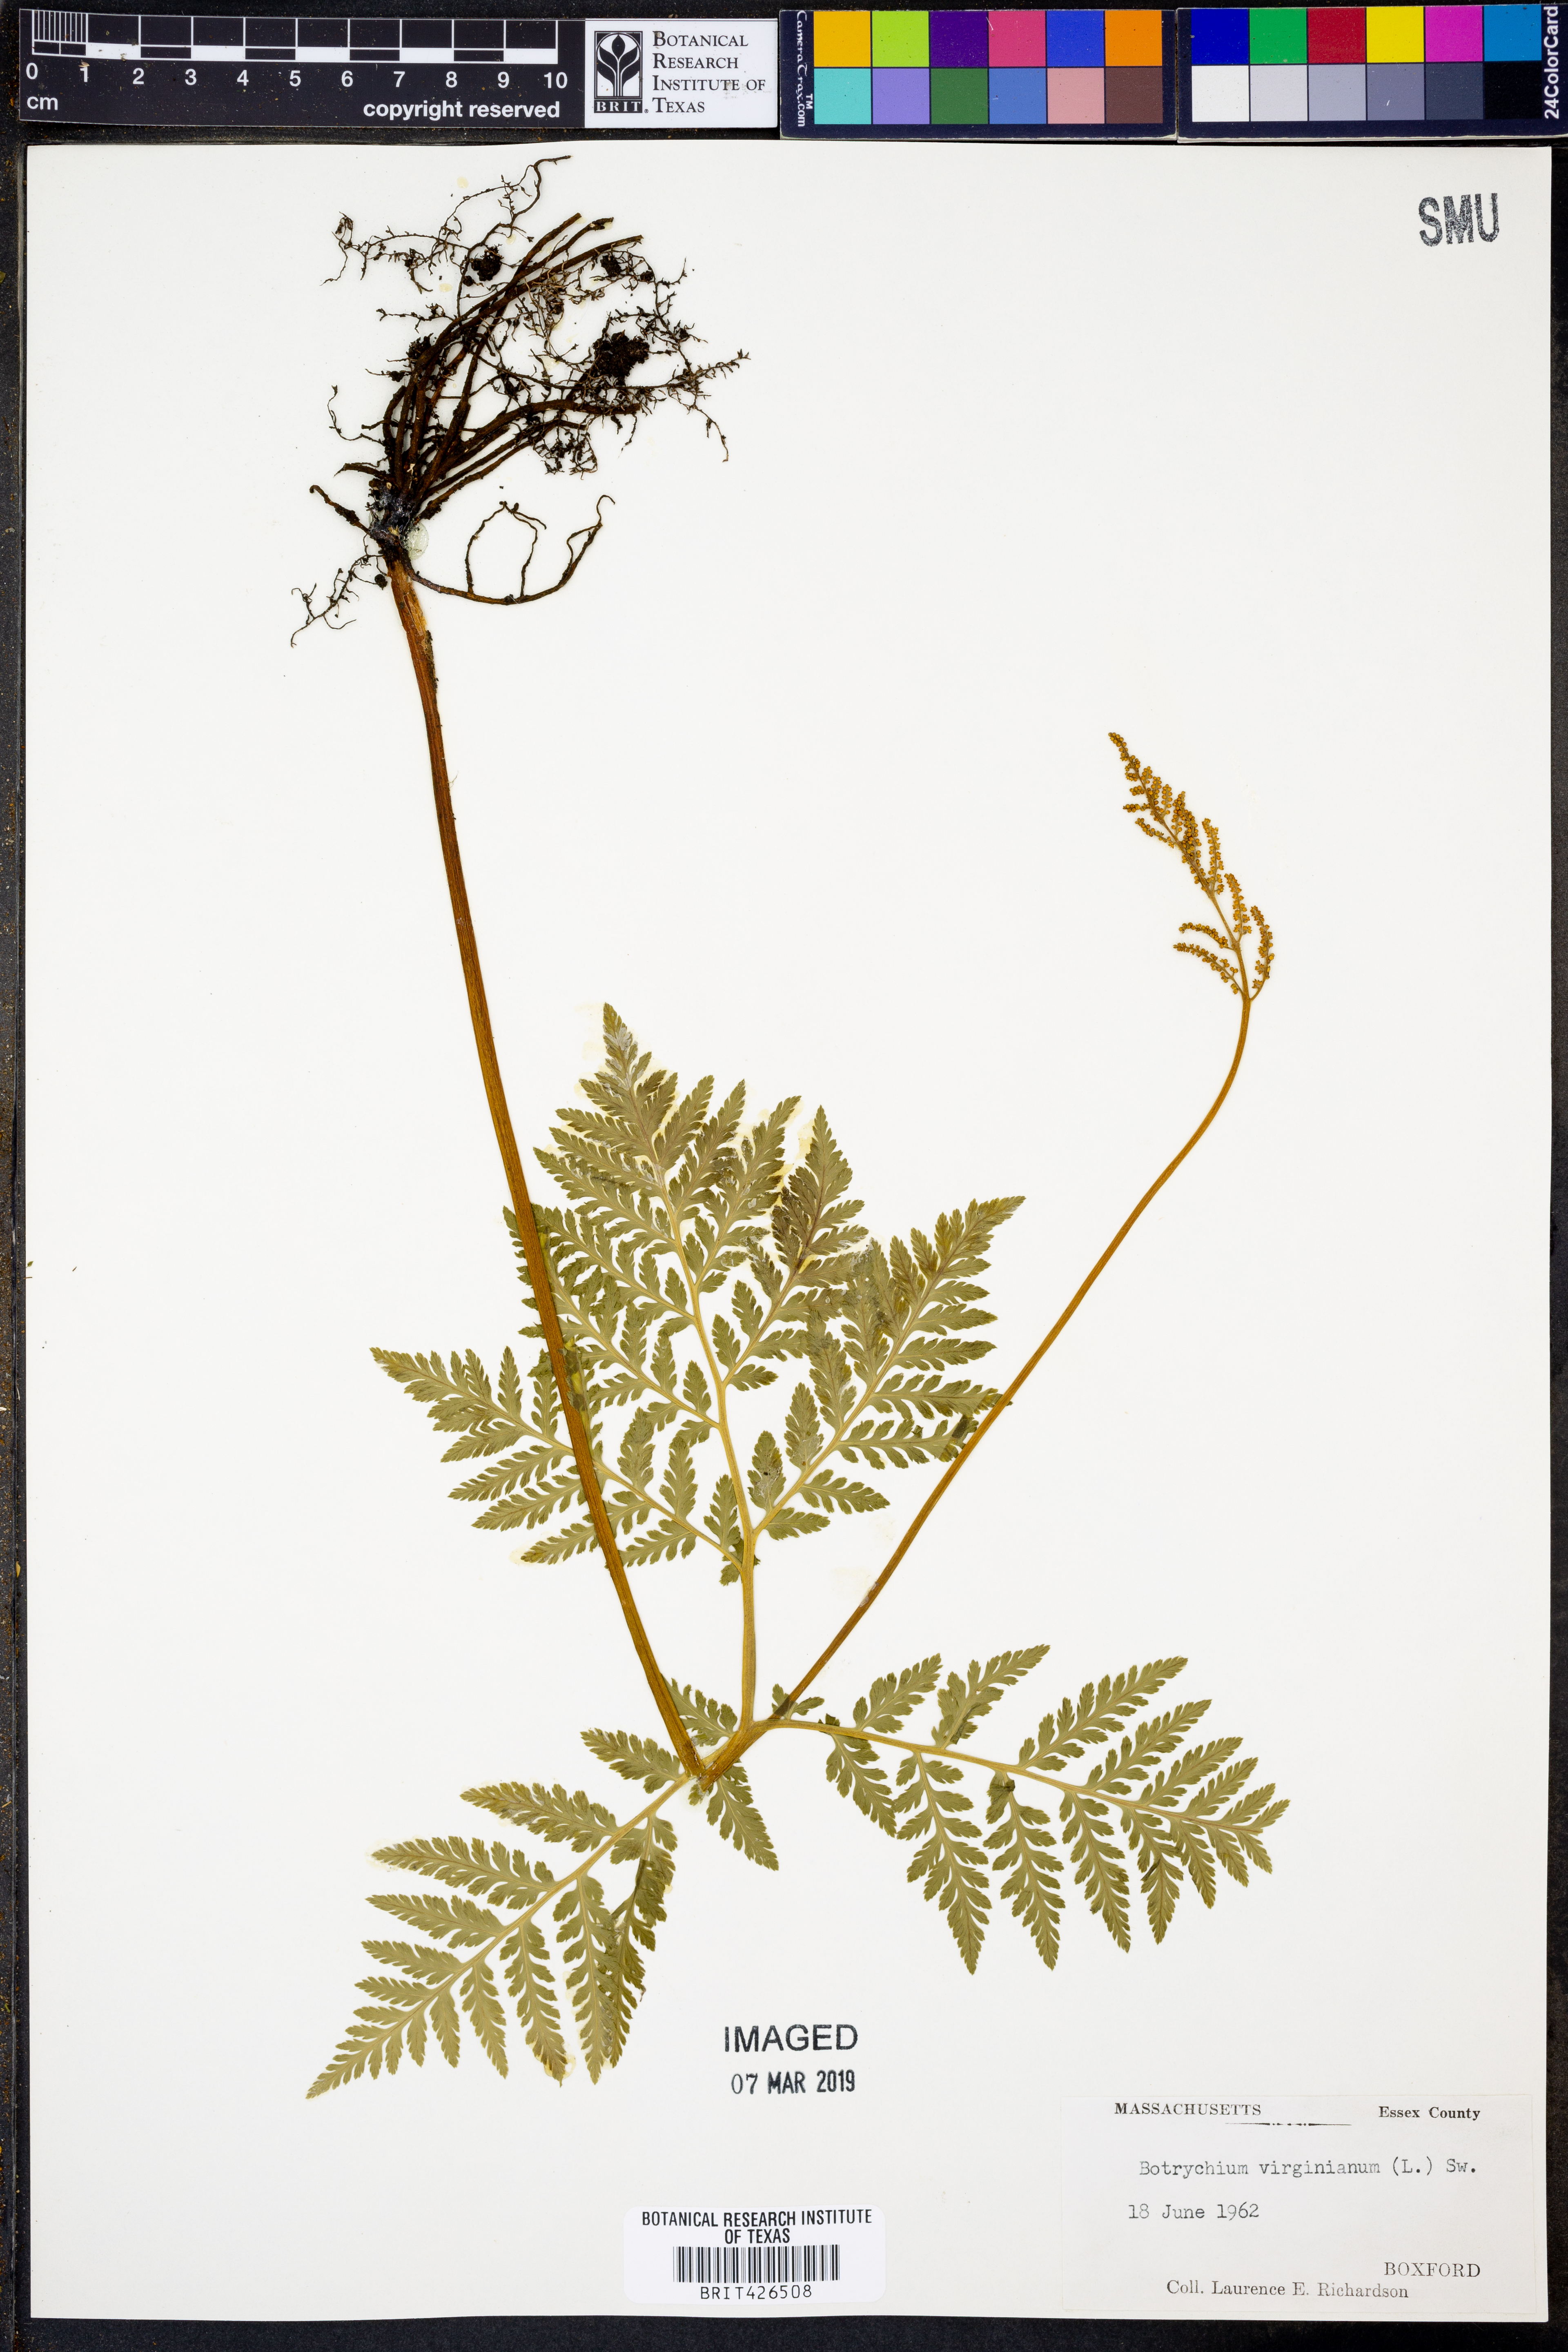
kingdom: Plantae
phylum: Tracheophyta
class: Polypodiopsida
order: Ophioglossales
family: Ophioglossaceae
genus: Botrypus
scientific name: Botrypus virginianus
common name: Common grapefern
